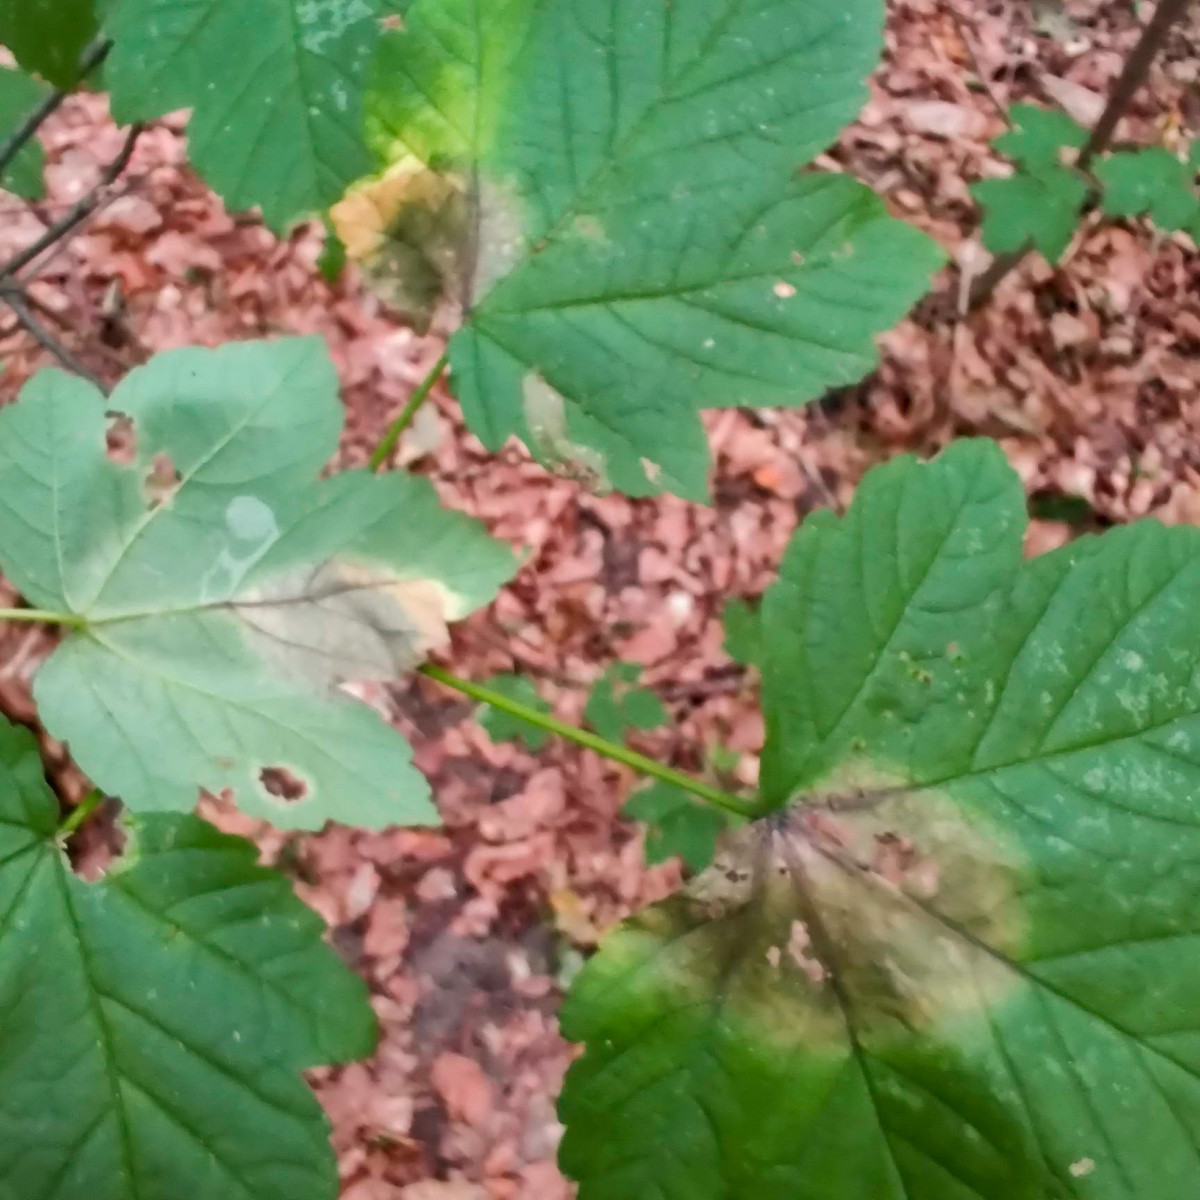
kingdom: Fungi
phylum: Ascomycota
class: Sordariomycetes
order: Diaporthales
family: Gnomoniaceae
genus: Pleuroceras
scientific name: Pleuroceras pseudoplatani
